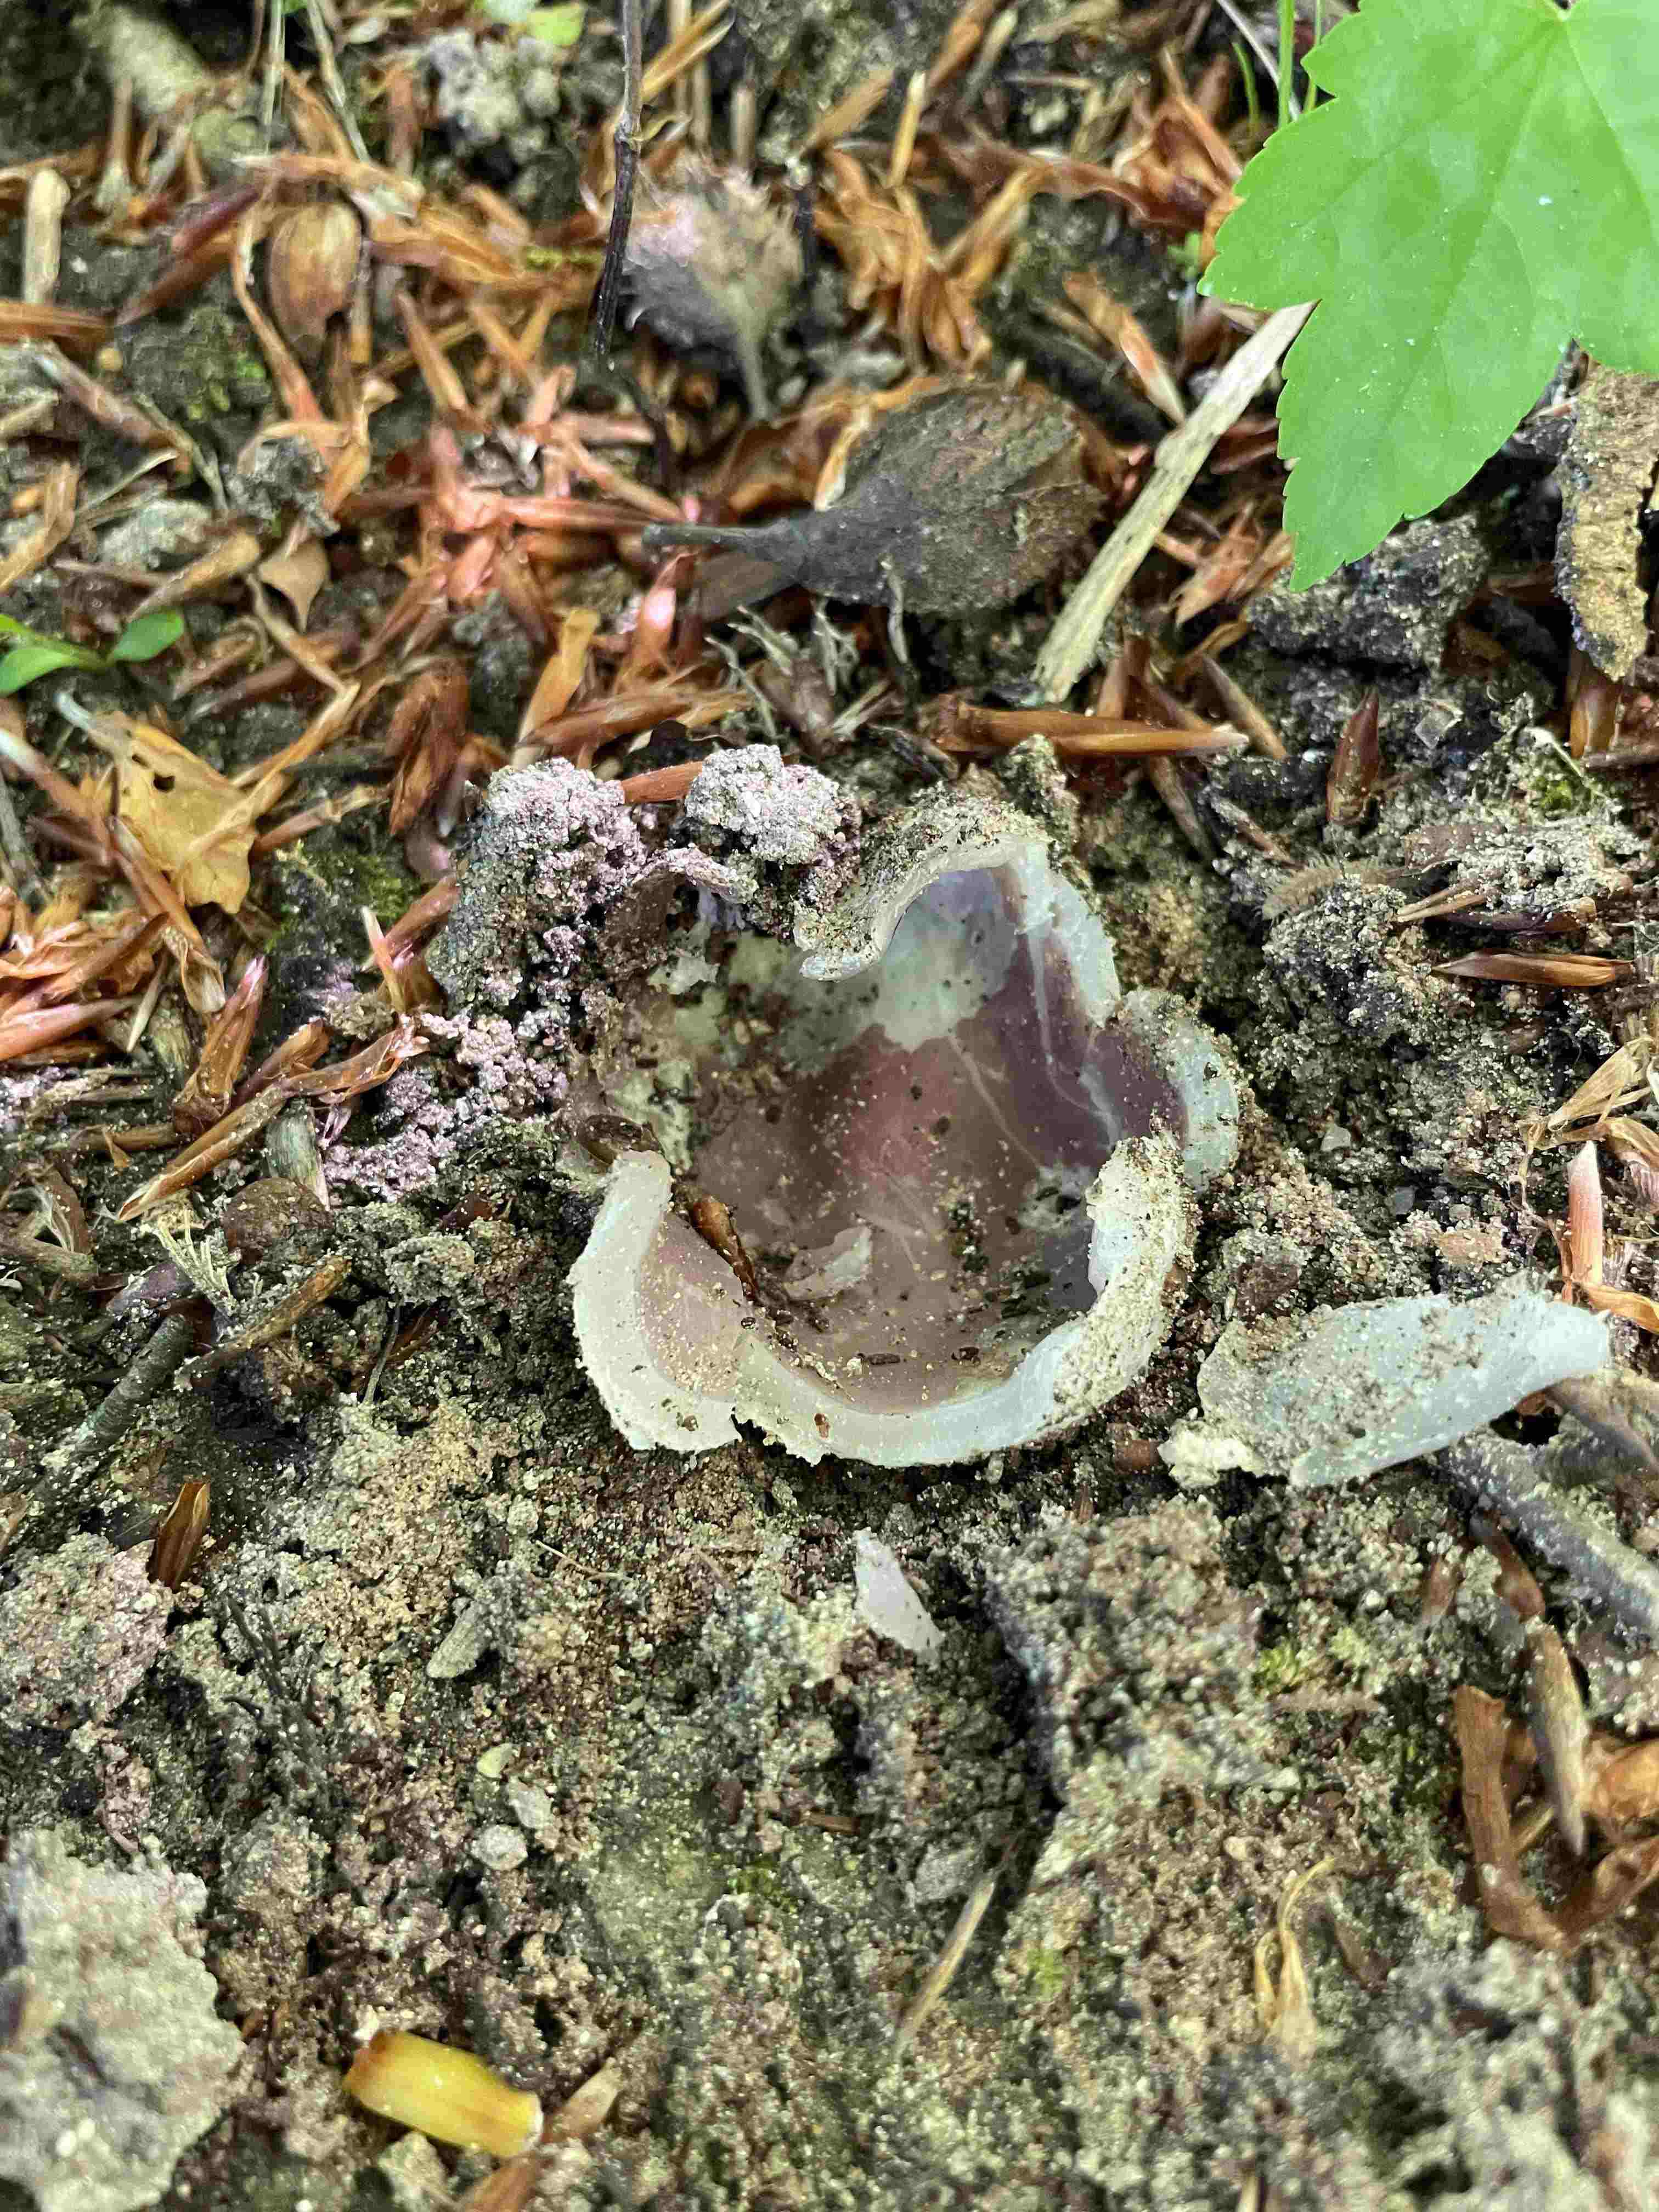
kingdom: Fungi
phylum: Ascomycota
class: Pezizomycetes
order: Pezizales
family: Pezizaceae
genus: Sarcosphaera
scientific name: Sarcosphaera coronaria
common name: stjernebæger
